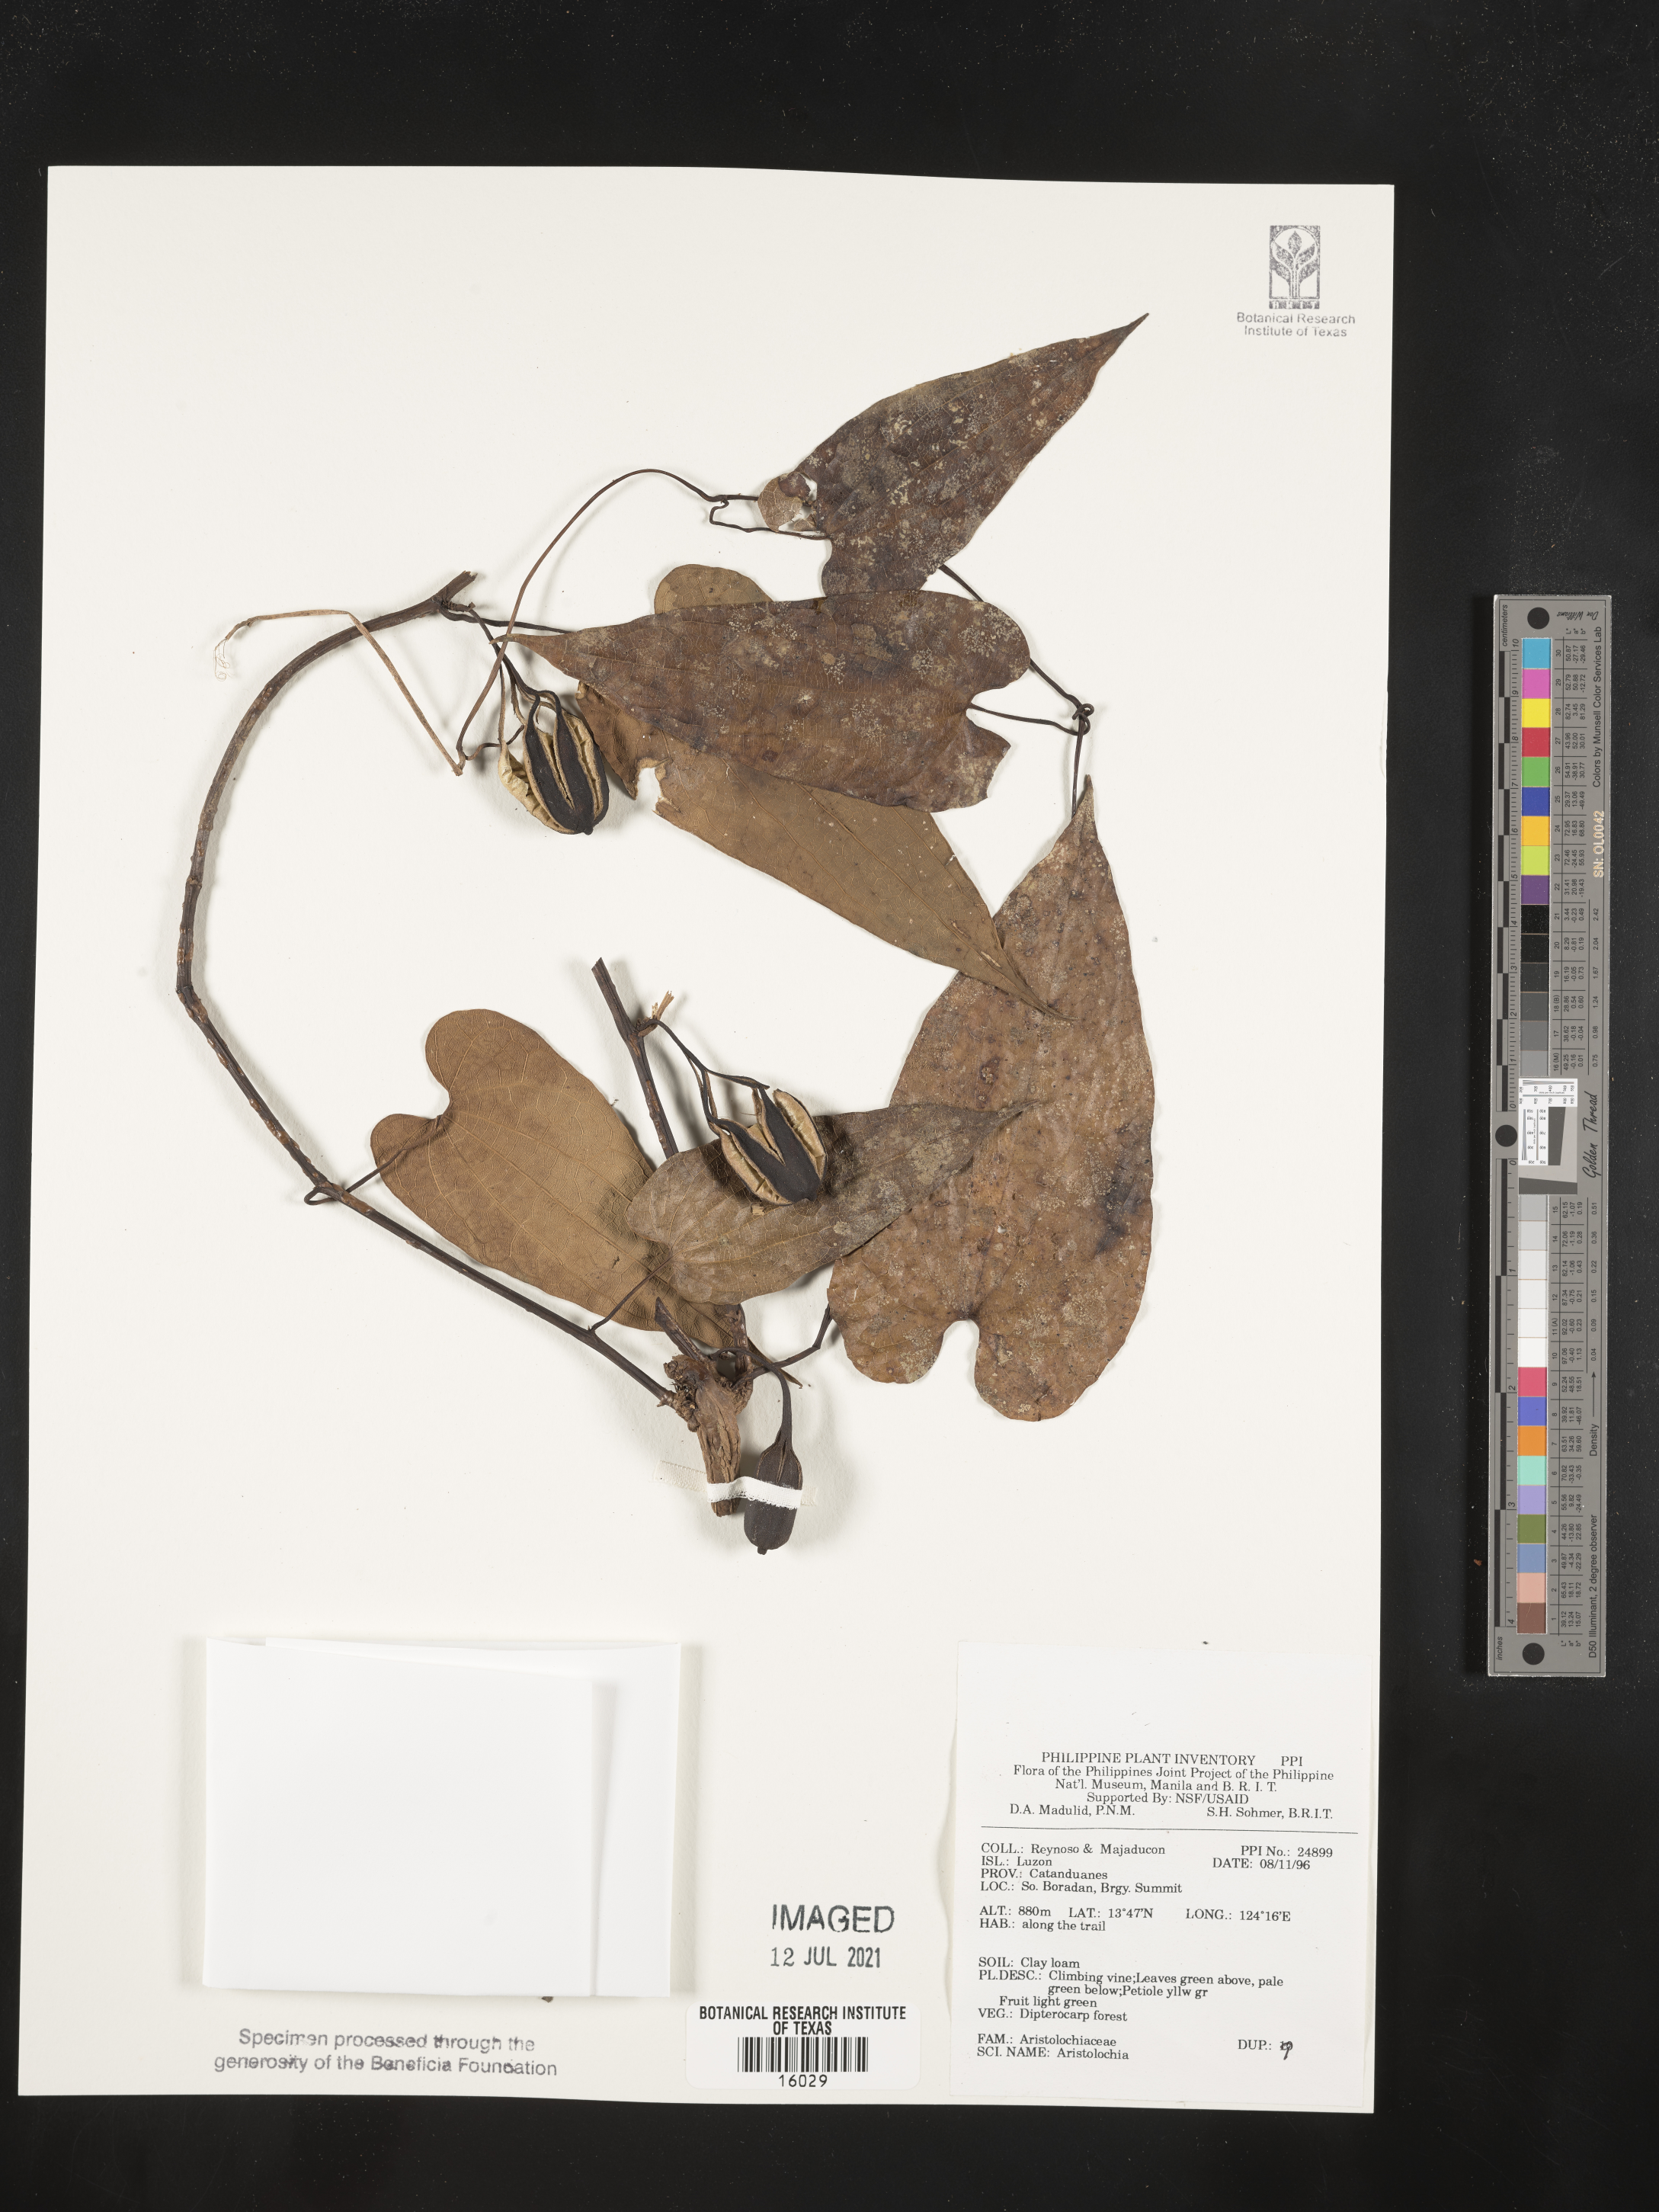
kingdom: Plantae
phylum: Tracheophyta
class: Magnoliopsida
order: Piperales
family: Aristolochiaceae
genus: Aristolochia
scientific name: Aristolochia
